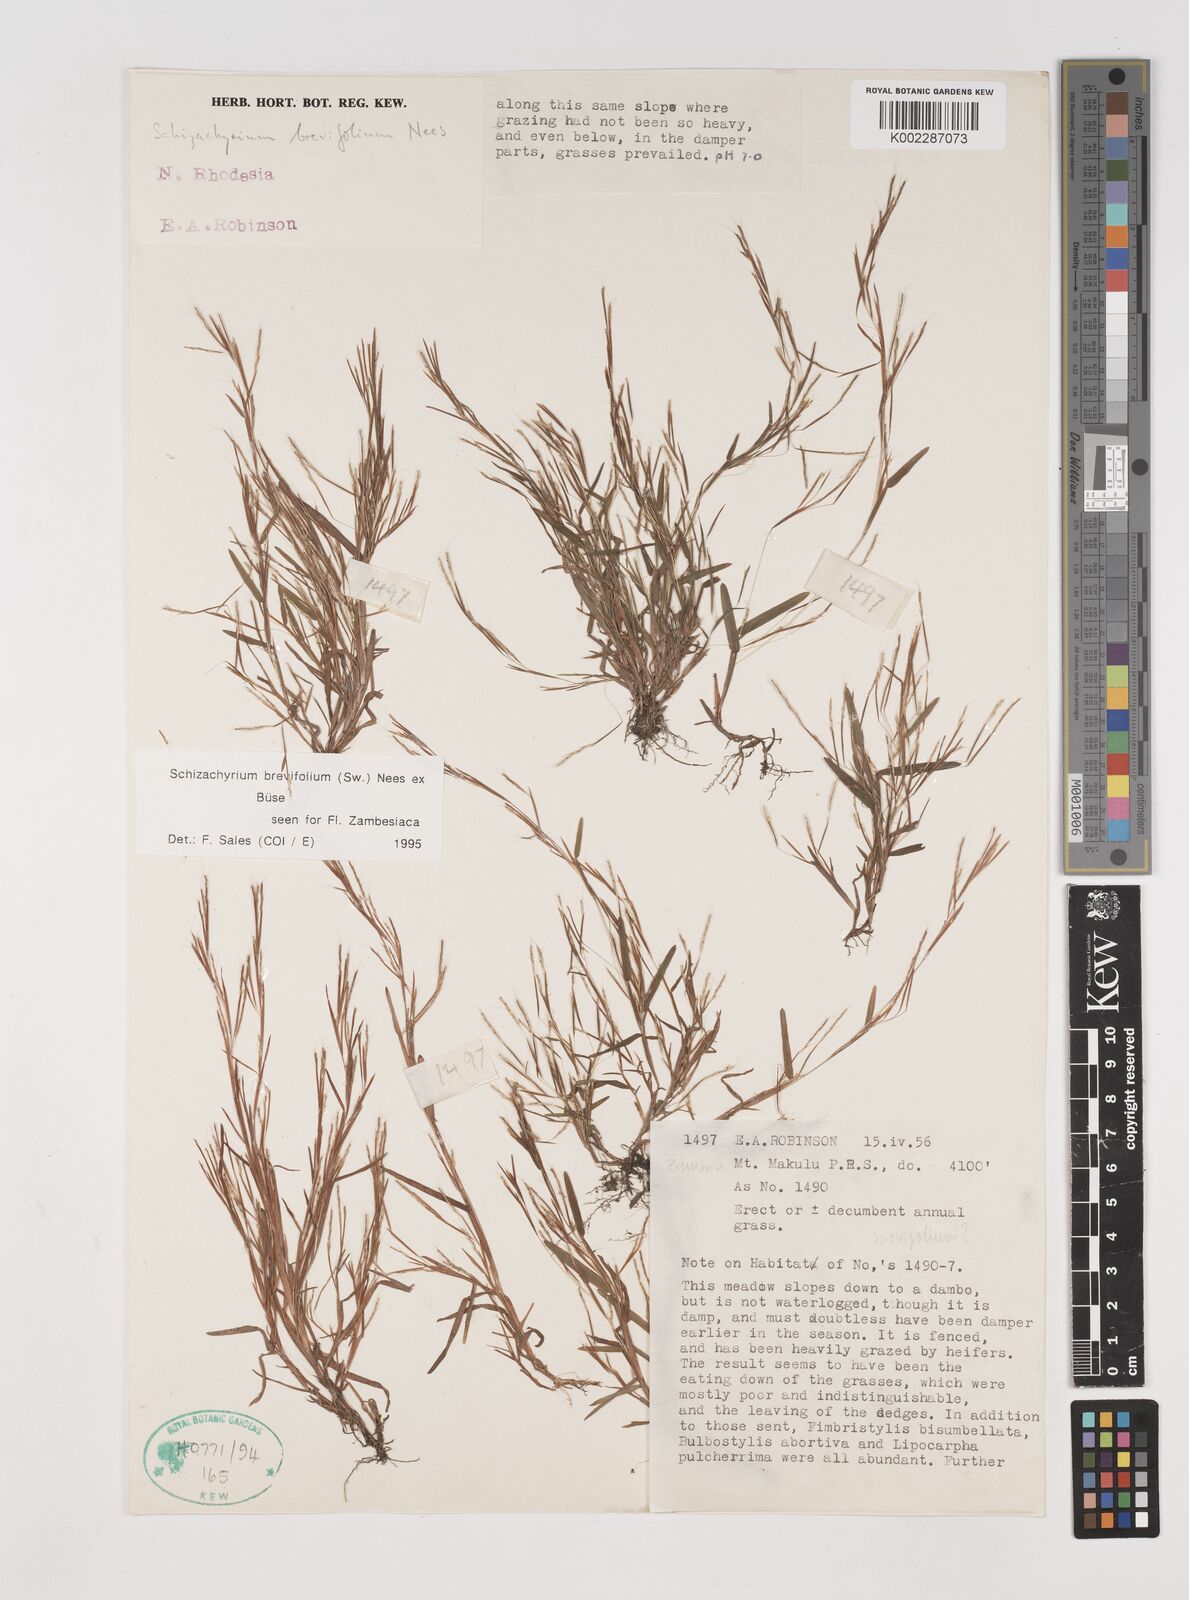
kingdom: Plantae
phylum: Tracheophyta
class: Liliopsida
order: Poales
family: Poaceae
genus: Schizachyrium
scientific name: Schizachyrium brevifolium
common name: Serillo dulce
